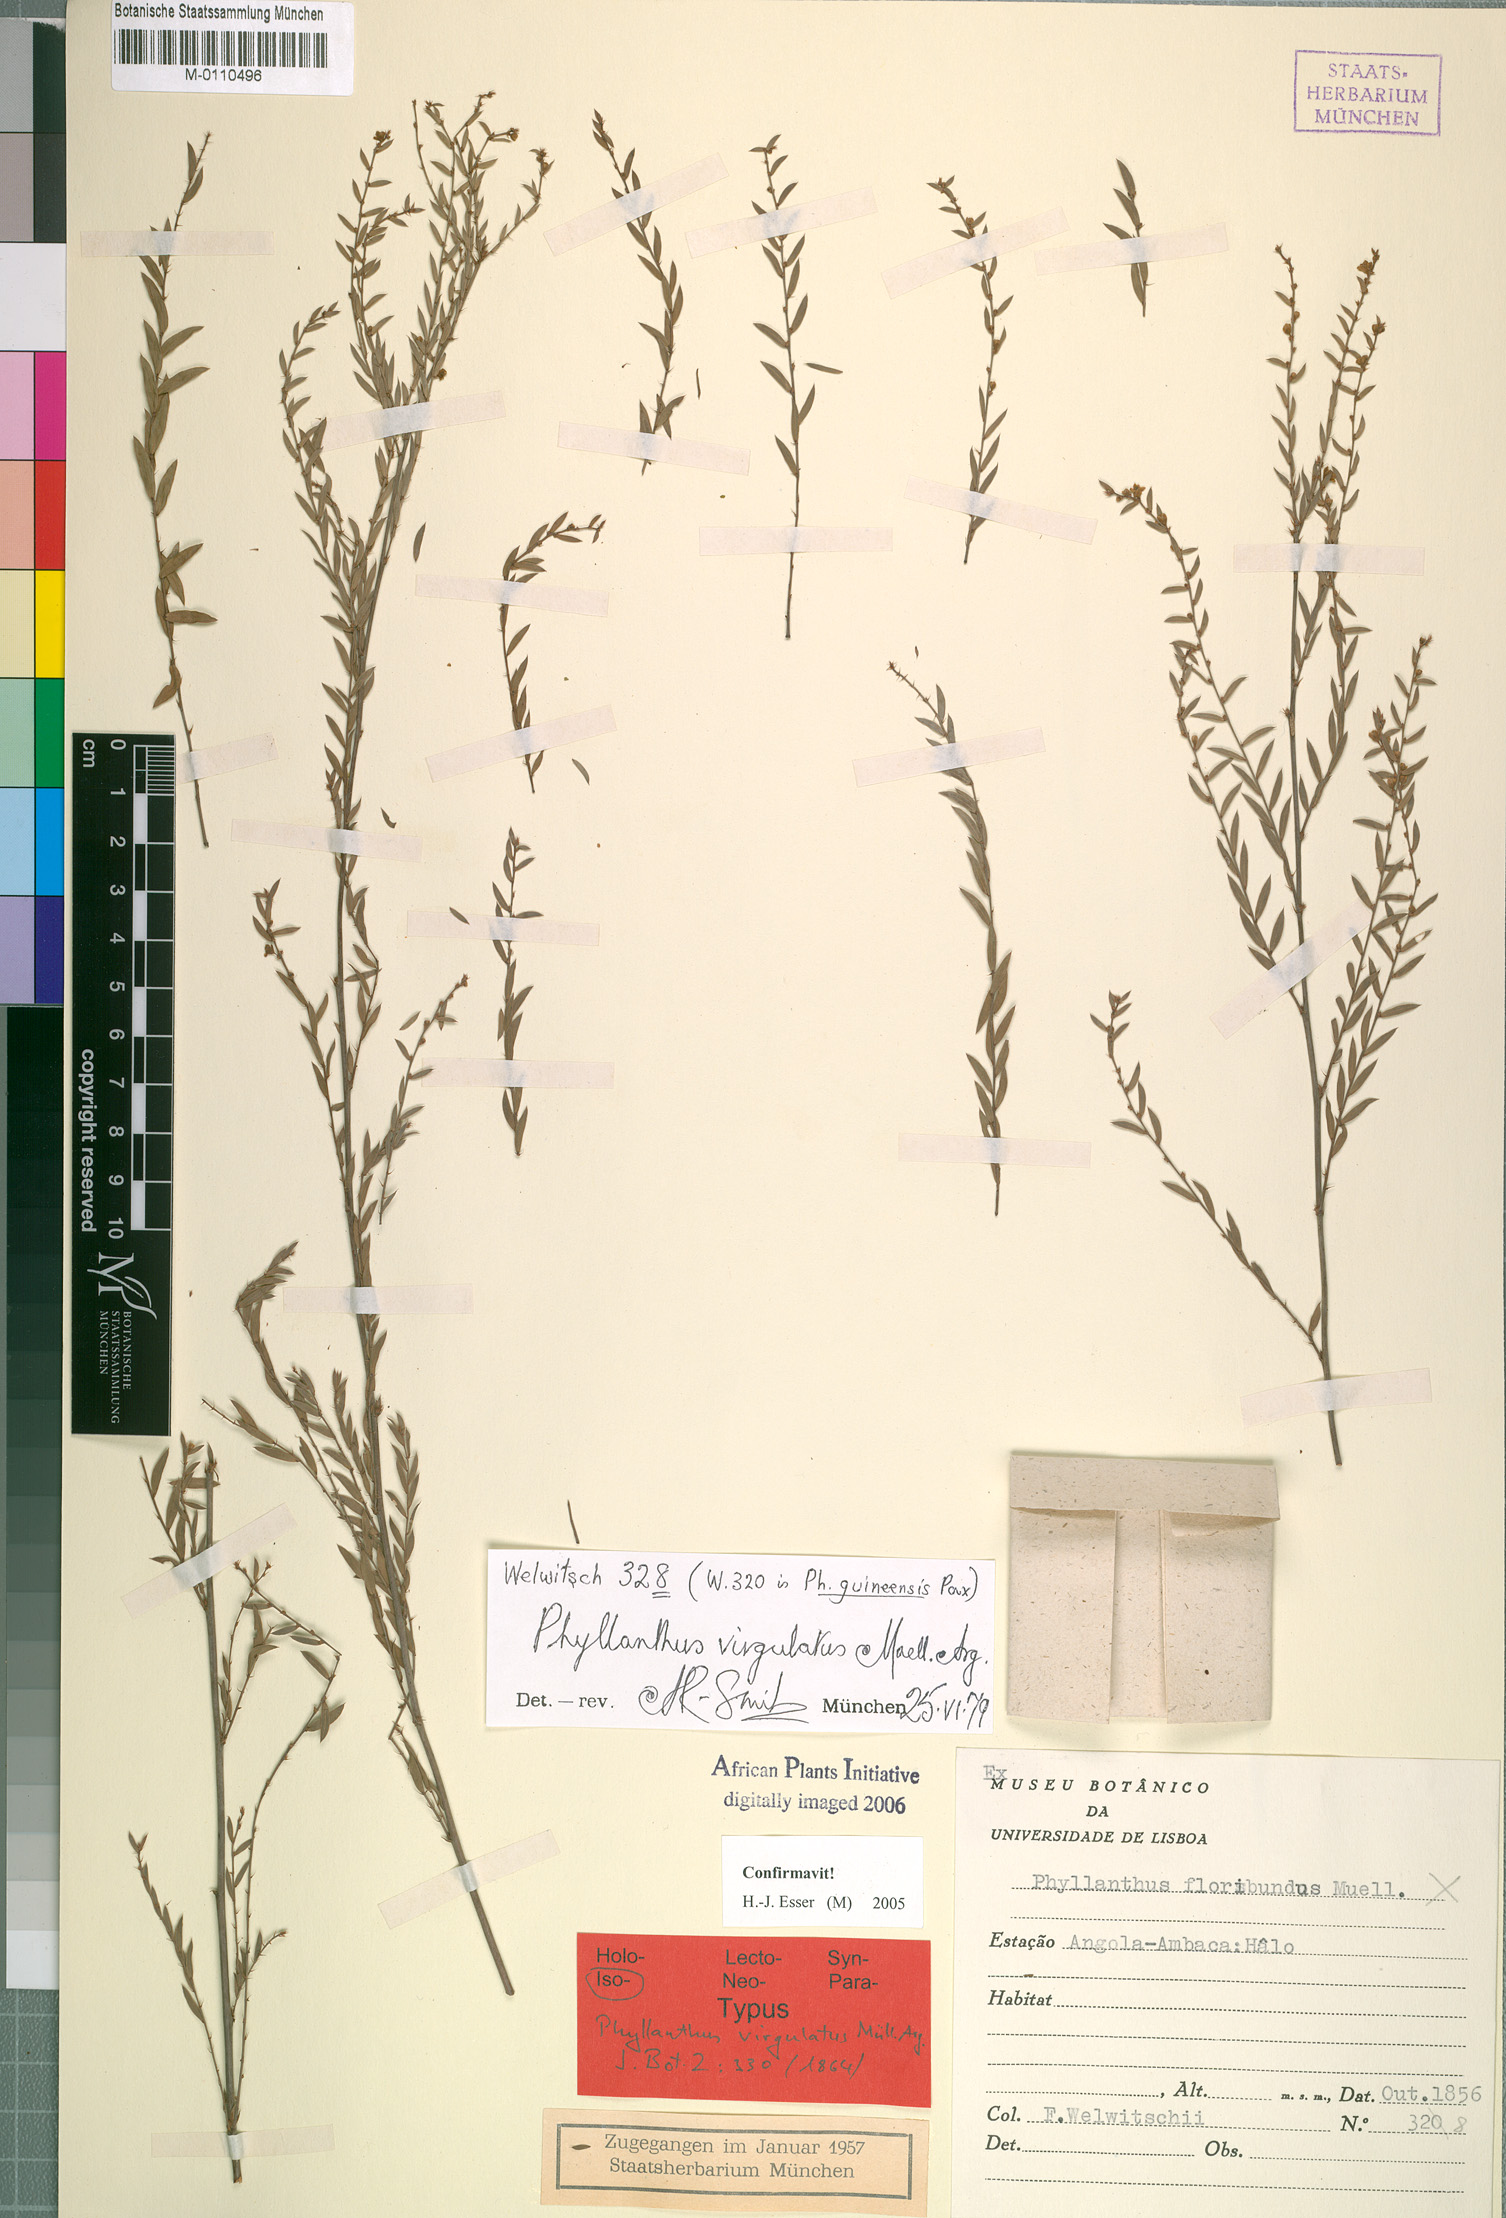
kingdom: Plantae
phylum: Tracheophyta
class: Magnoliopsida
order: Malpighiales
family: Phyllanthaceae
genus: Phyllanthus
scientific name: Phyllanthus virgulatus
